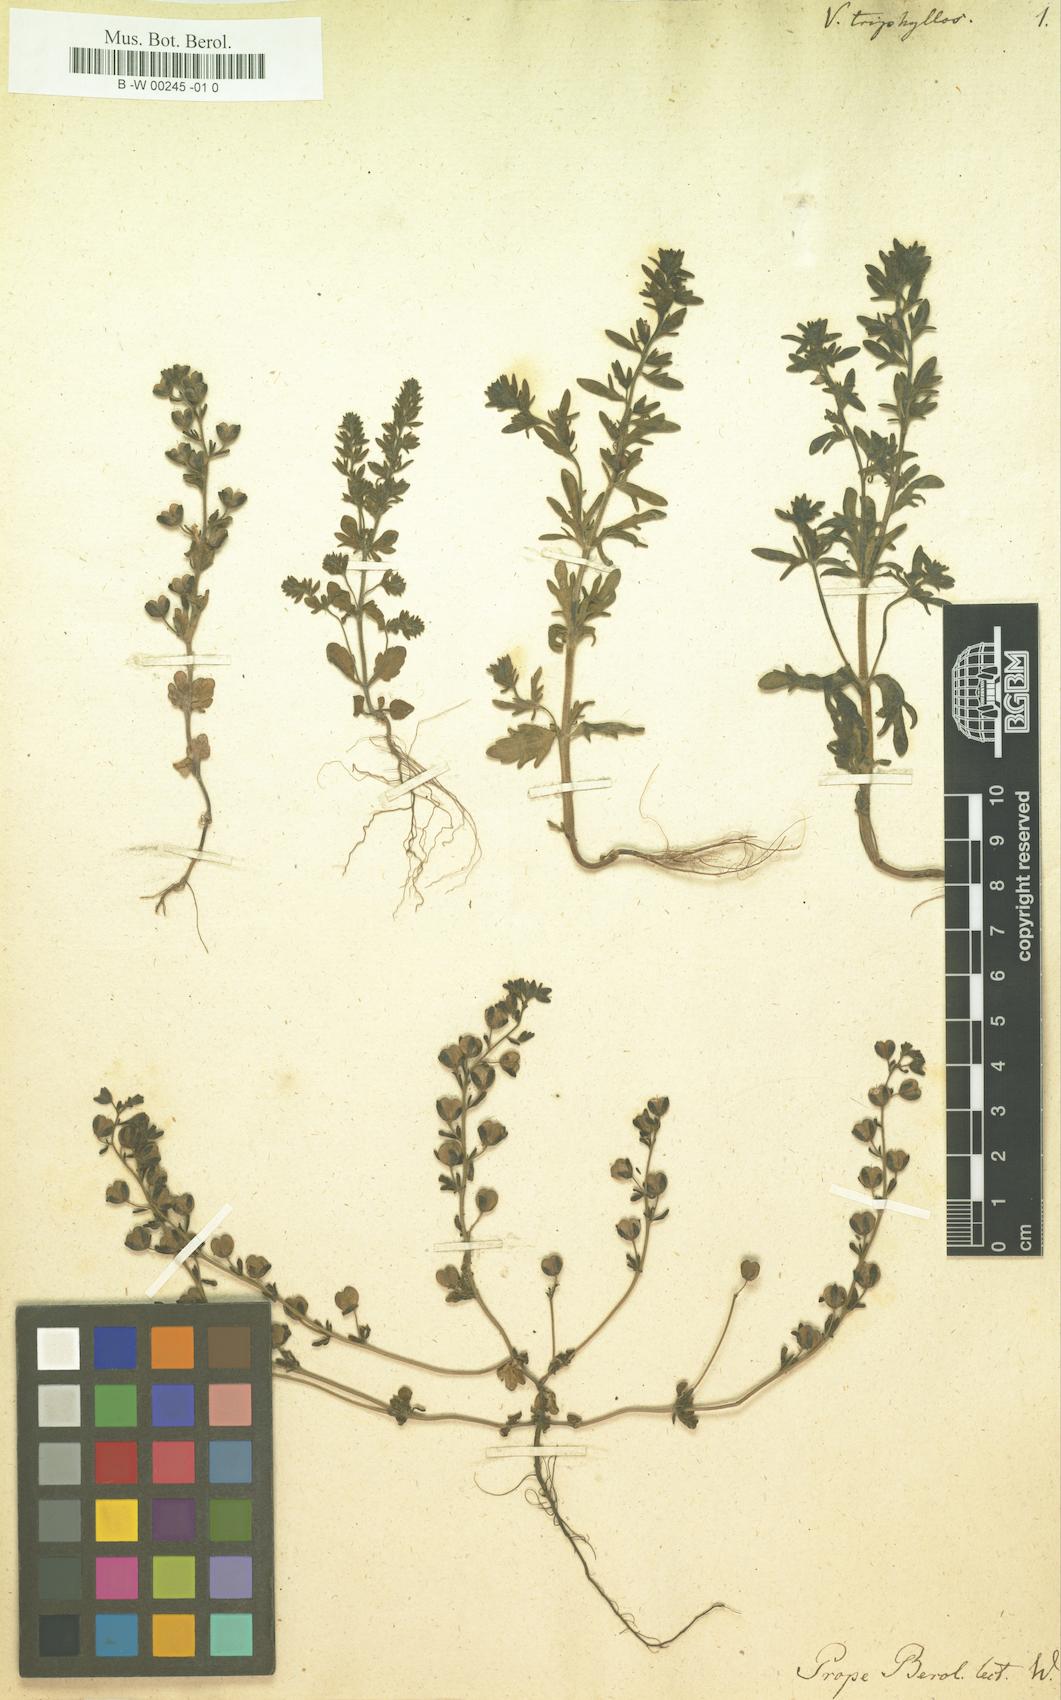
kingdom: Plantae
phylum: Tracheophyta
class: Magnoliopsida
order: Lamiales
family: Plantaginaceae
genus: Veronica
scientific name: Veronica triphyllos
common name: Fingered speedwell
